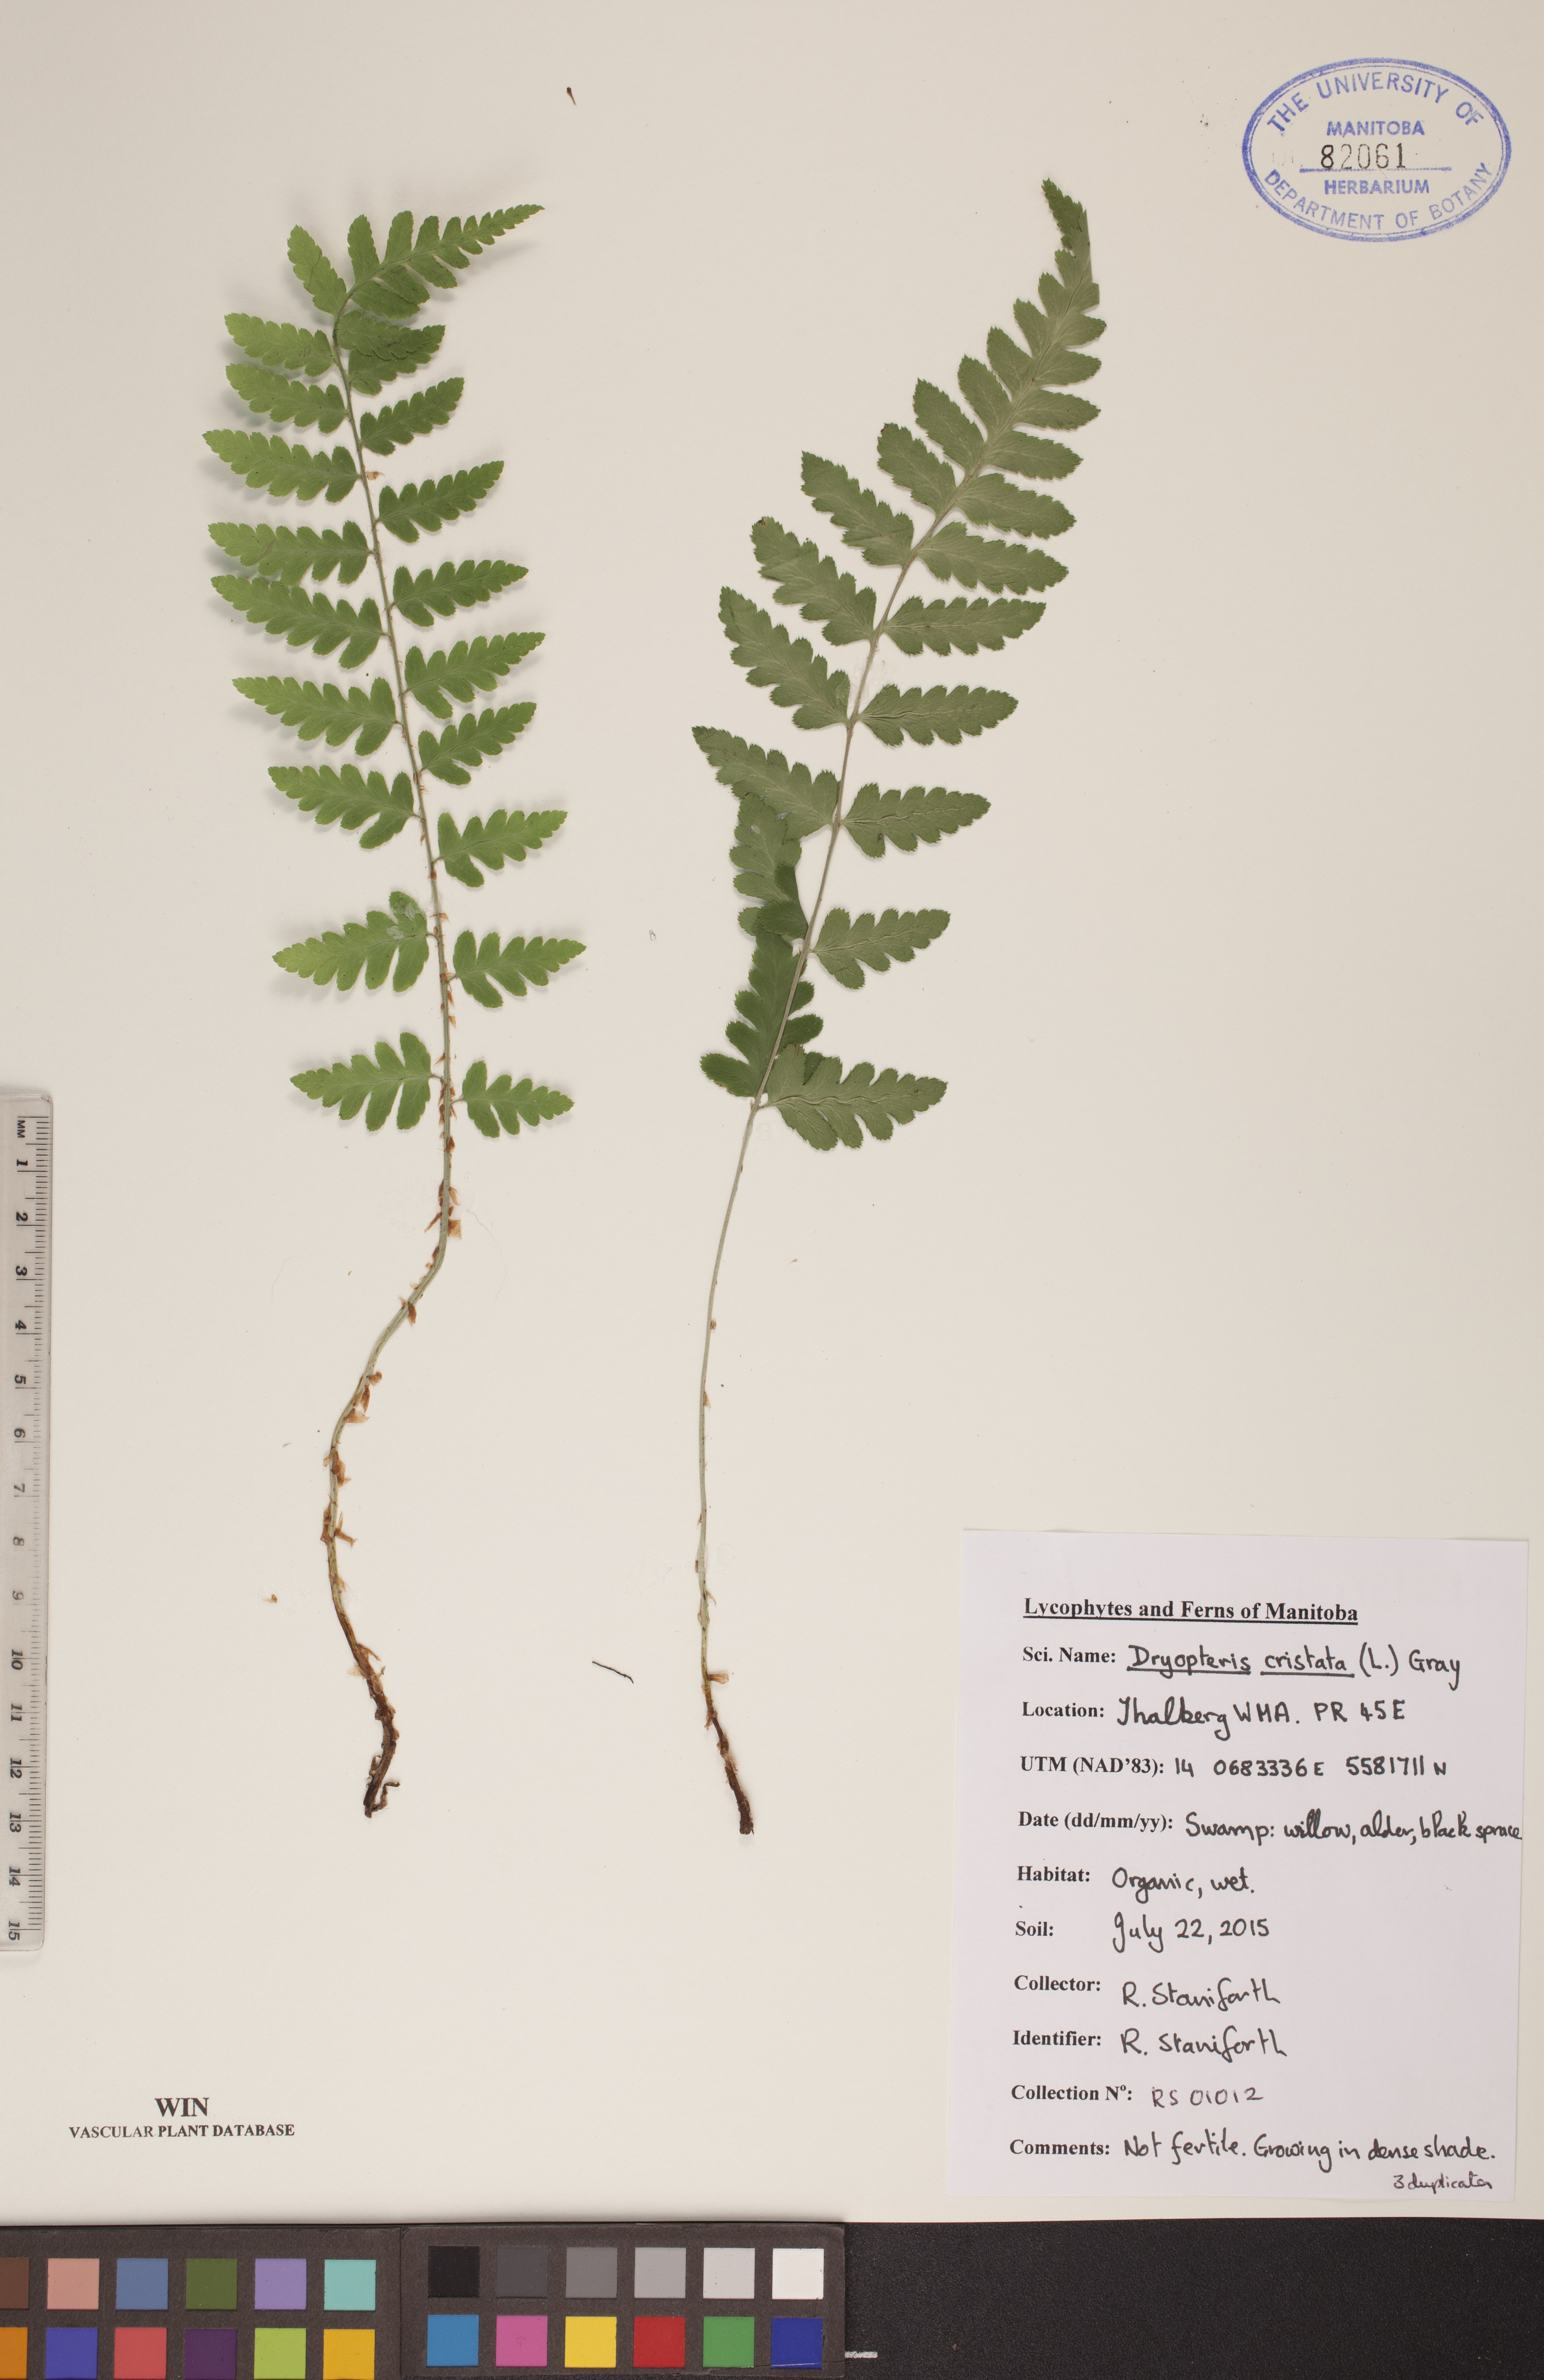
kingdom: Plantae
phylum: Tracheophyta
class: Polypodiopsida
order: Polypodiales
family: Dryopteridaceae
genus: Dryopteris
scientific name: Dryopteris cristata
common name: Crested wood fern
